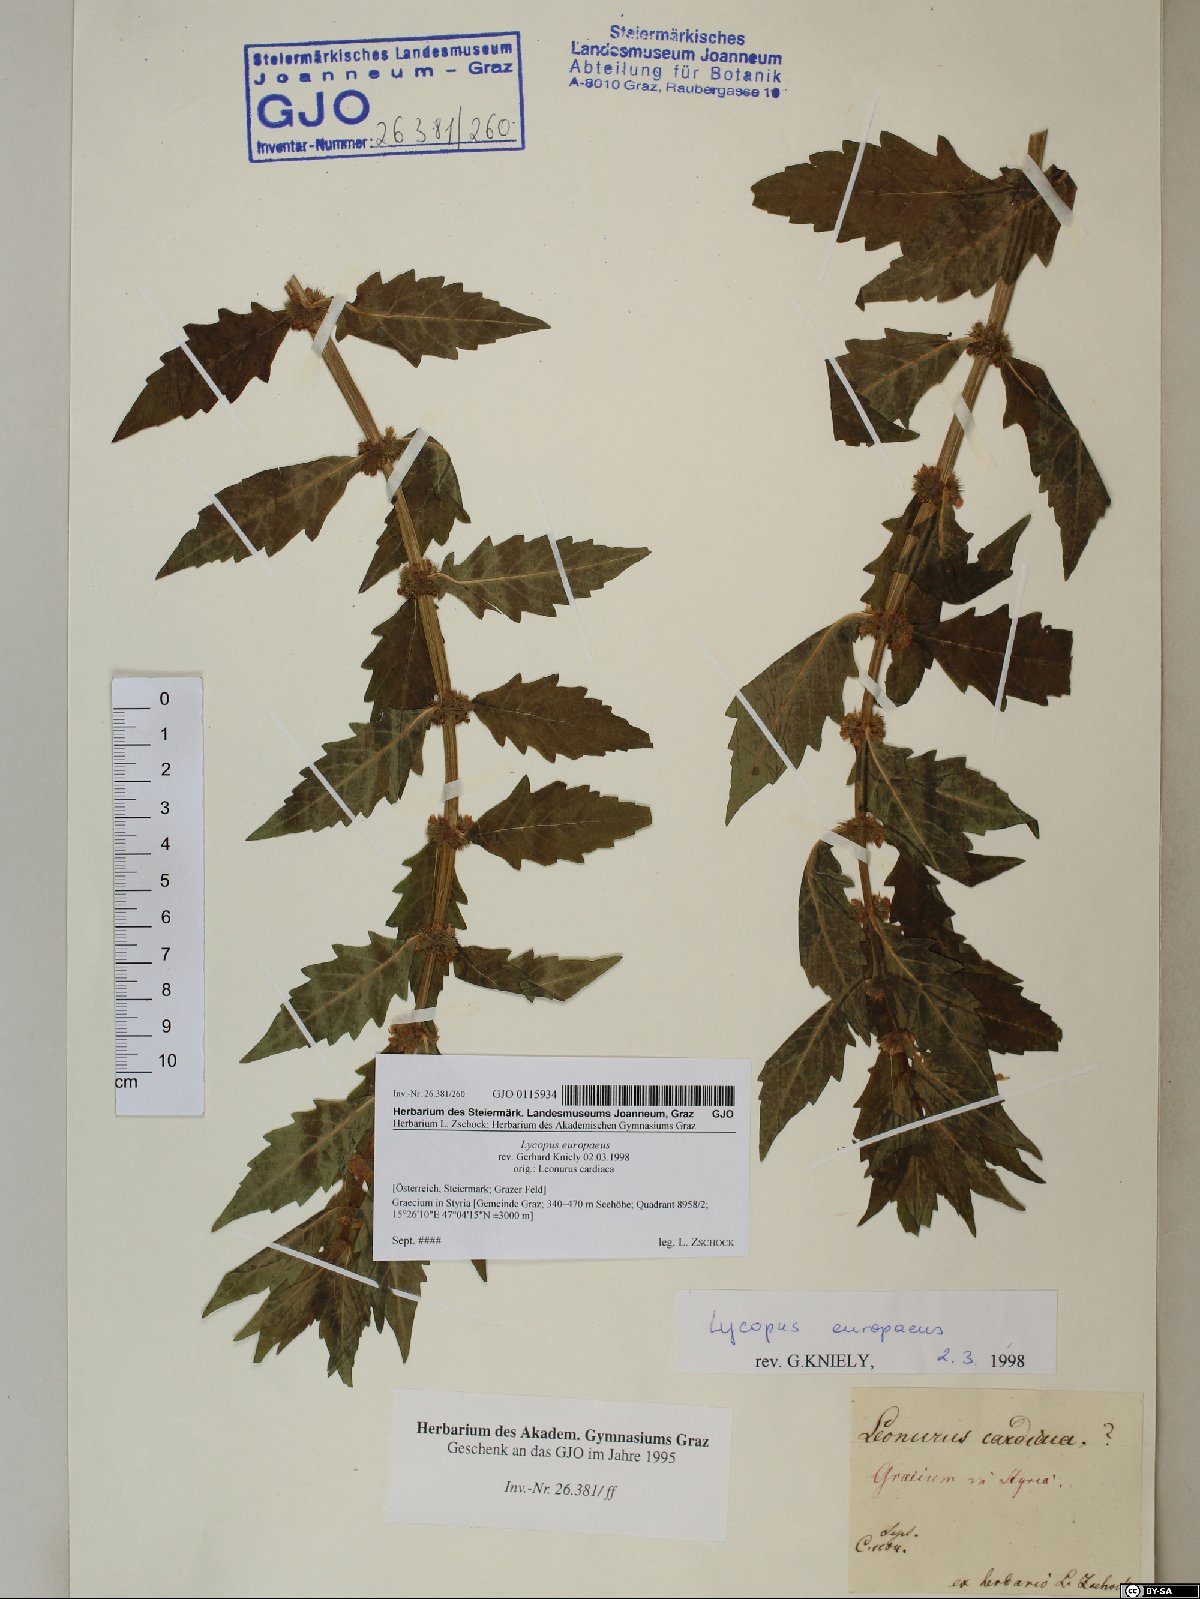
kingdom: Plantae
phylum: Tracheophyta
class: Magnoliopsida
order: Lamiales
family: Lamiaceae
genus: Lycopus
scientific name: Lycopus europaeus
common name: European bugleweed
